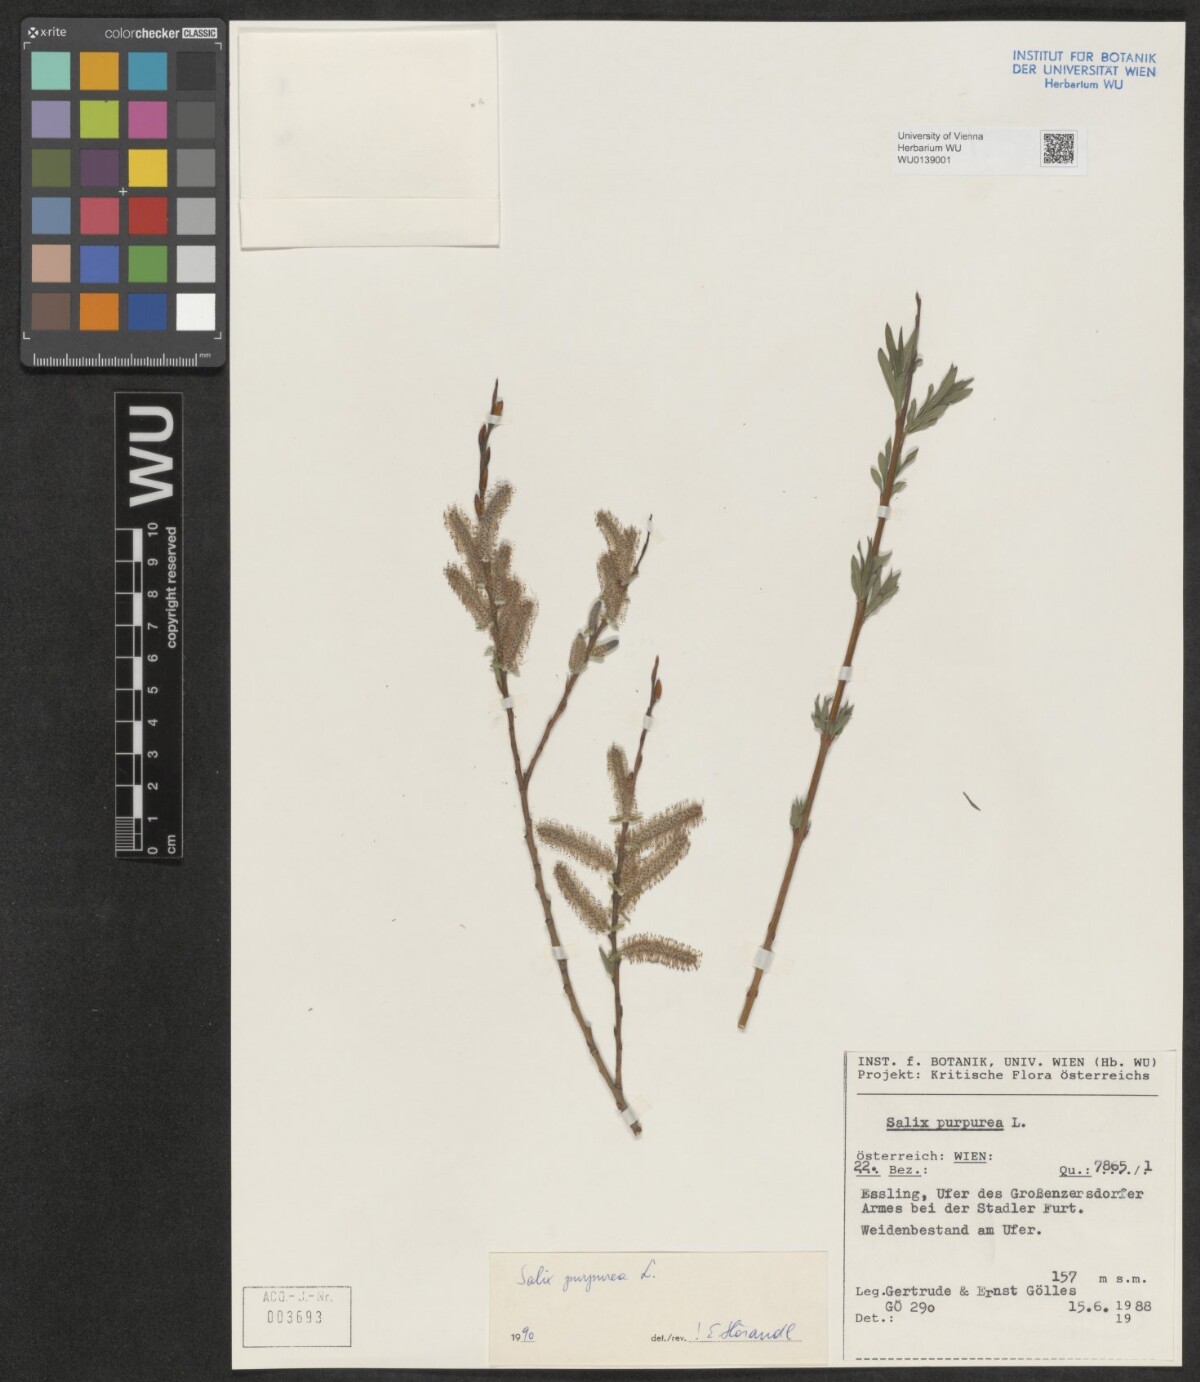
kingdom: Plantae
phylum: Tracheophyta
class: Magnoliopsida
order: Malpighiales
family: Salicaceae
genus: Salix
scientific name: Salix purpurea
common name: Purple willow
